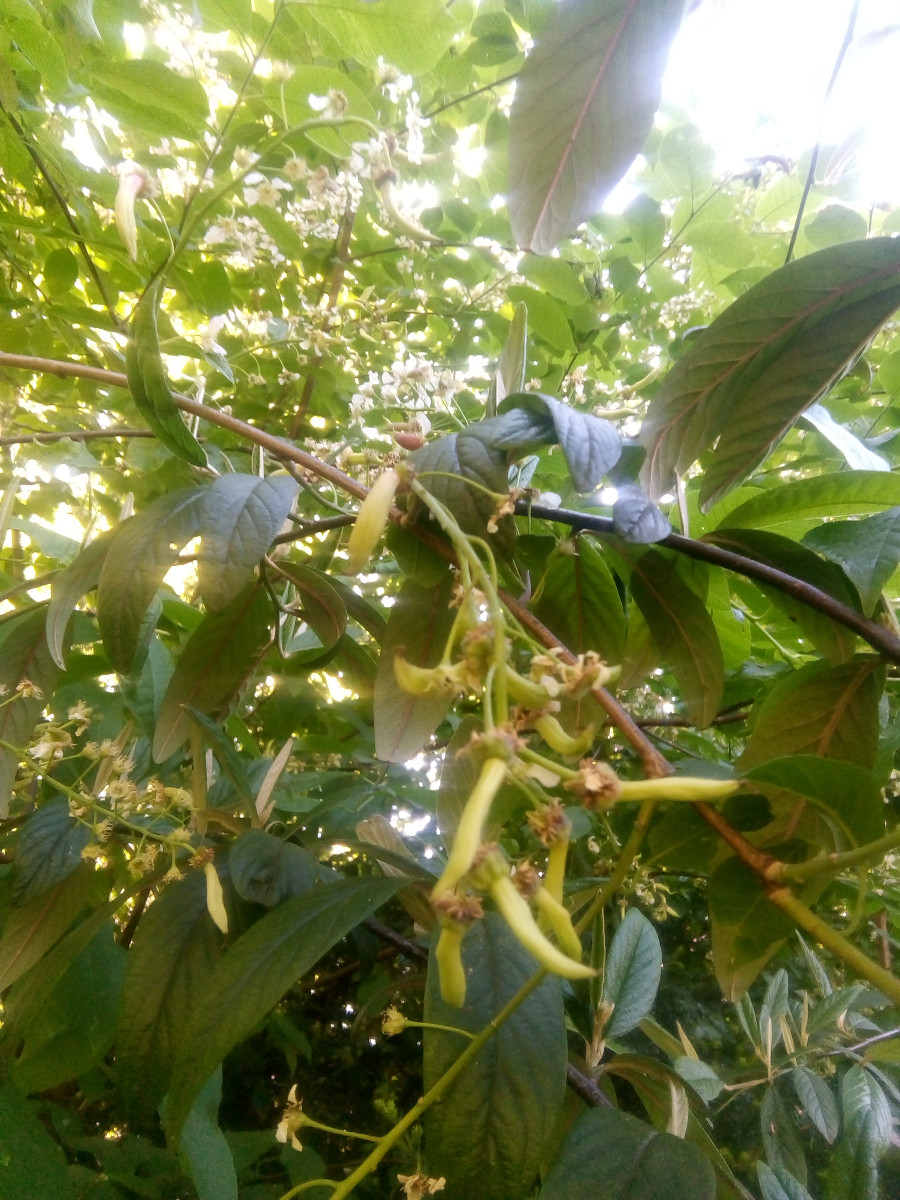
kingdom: Fungi
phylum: Ascomycota
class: Taphrinomycetes
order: Taphrinales
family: Taphrinaceae
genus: Taphrina
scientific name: Taphrina padi
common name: Bird cherry pocket
